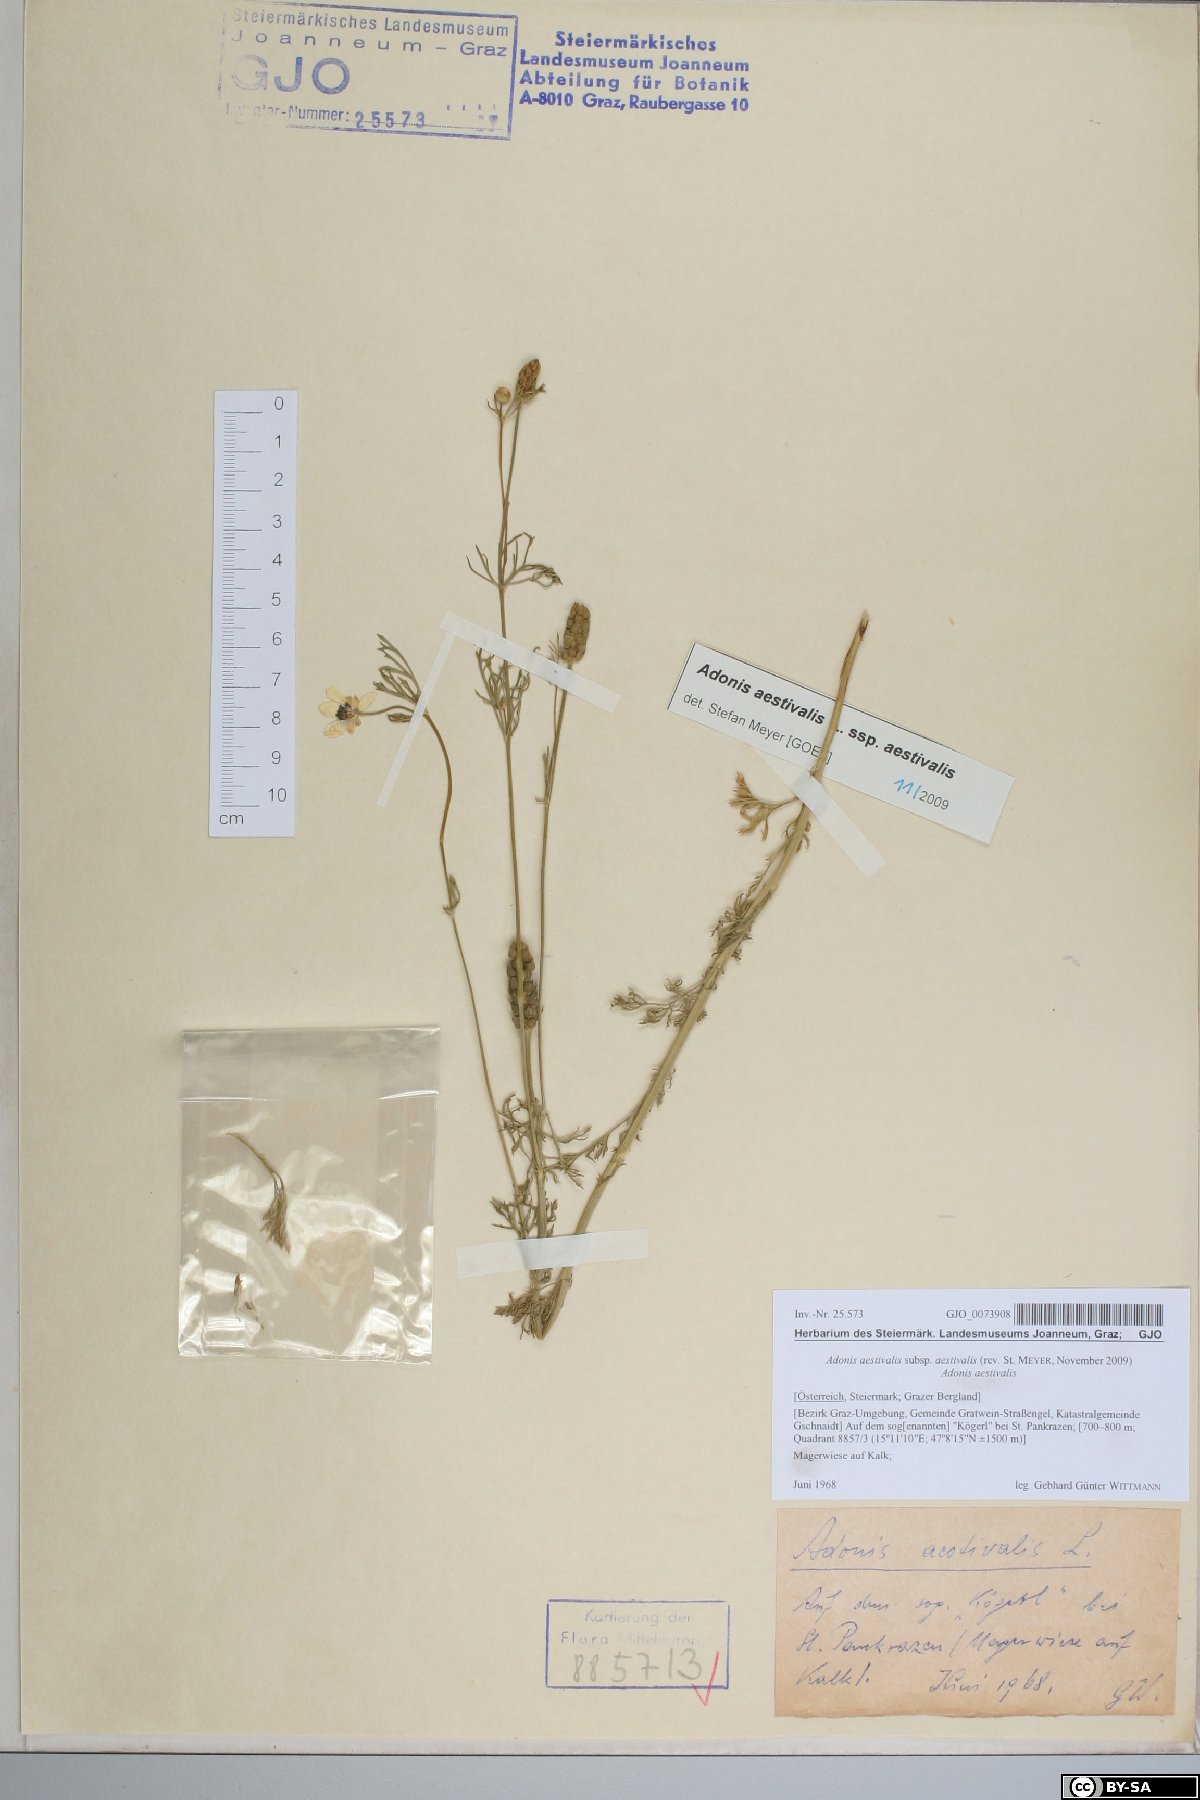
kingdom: Plantae
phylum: Tracheophyta
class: Magnoliopsida
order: Ranunculales
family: Ranunculaceae
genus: Adonis
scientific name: Adonis aestivalis
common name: Summer pheasant's-eye
